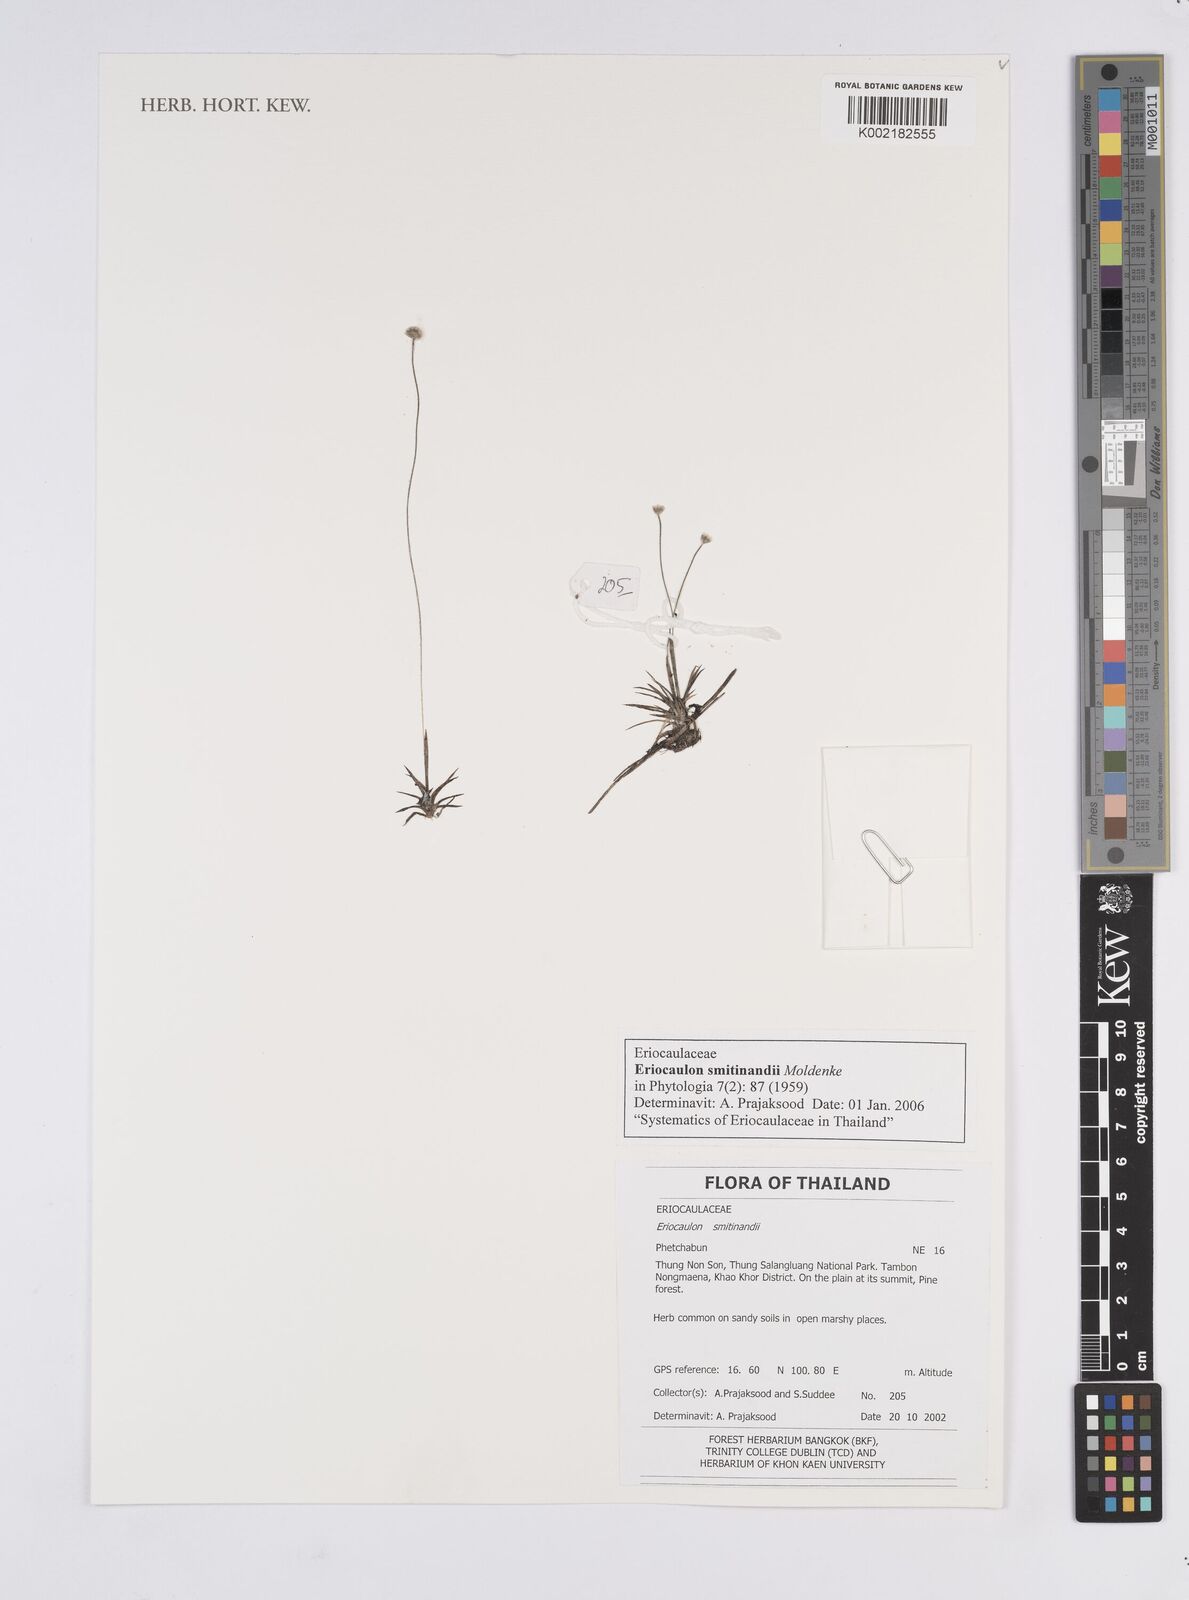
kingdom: Plantae
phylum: Tracheophyta
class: Liliopsida
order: Poales
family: Eriocaulaceae
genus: Eriocaulon
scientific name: Eriocaulon smitinandii
